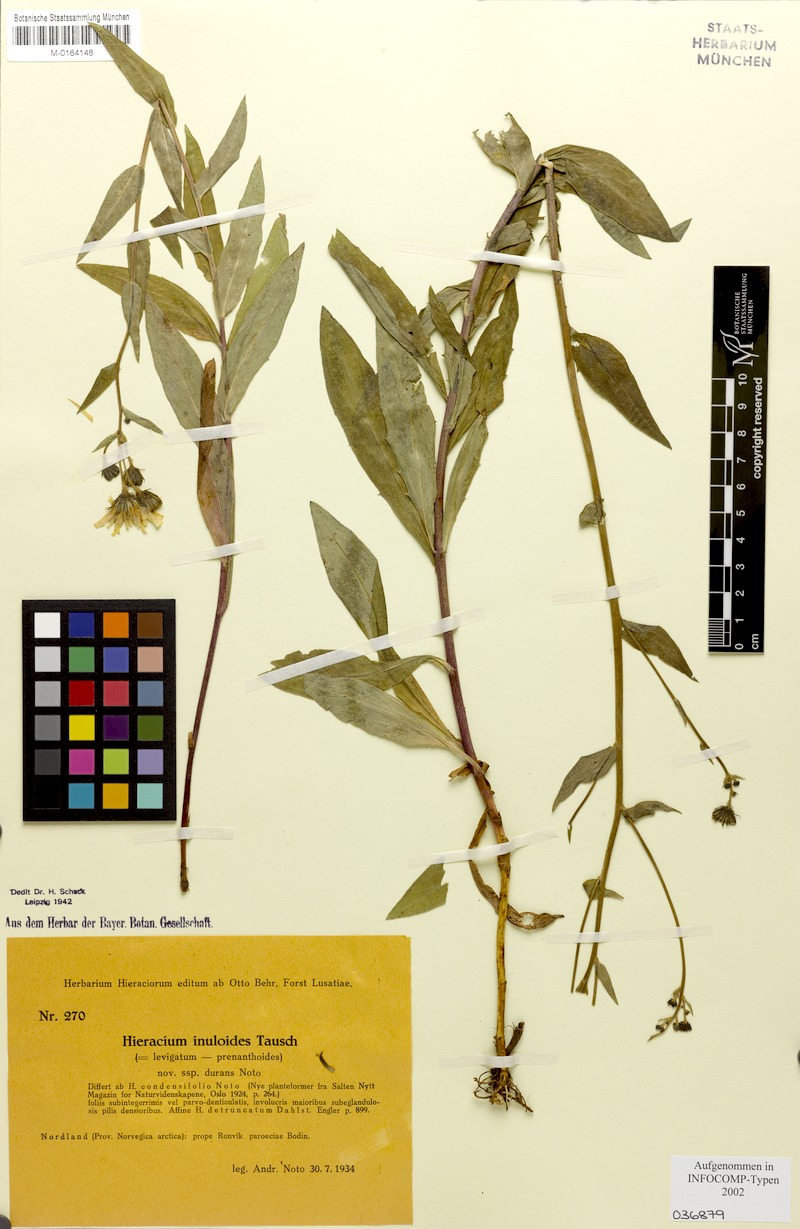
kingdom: Plantae
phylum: Tracheophyta
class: Magnoliopsida
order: Asterales
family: Asteraceae
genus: Hieracium
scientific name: Hieracium inuloides
